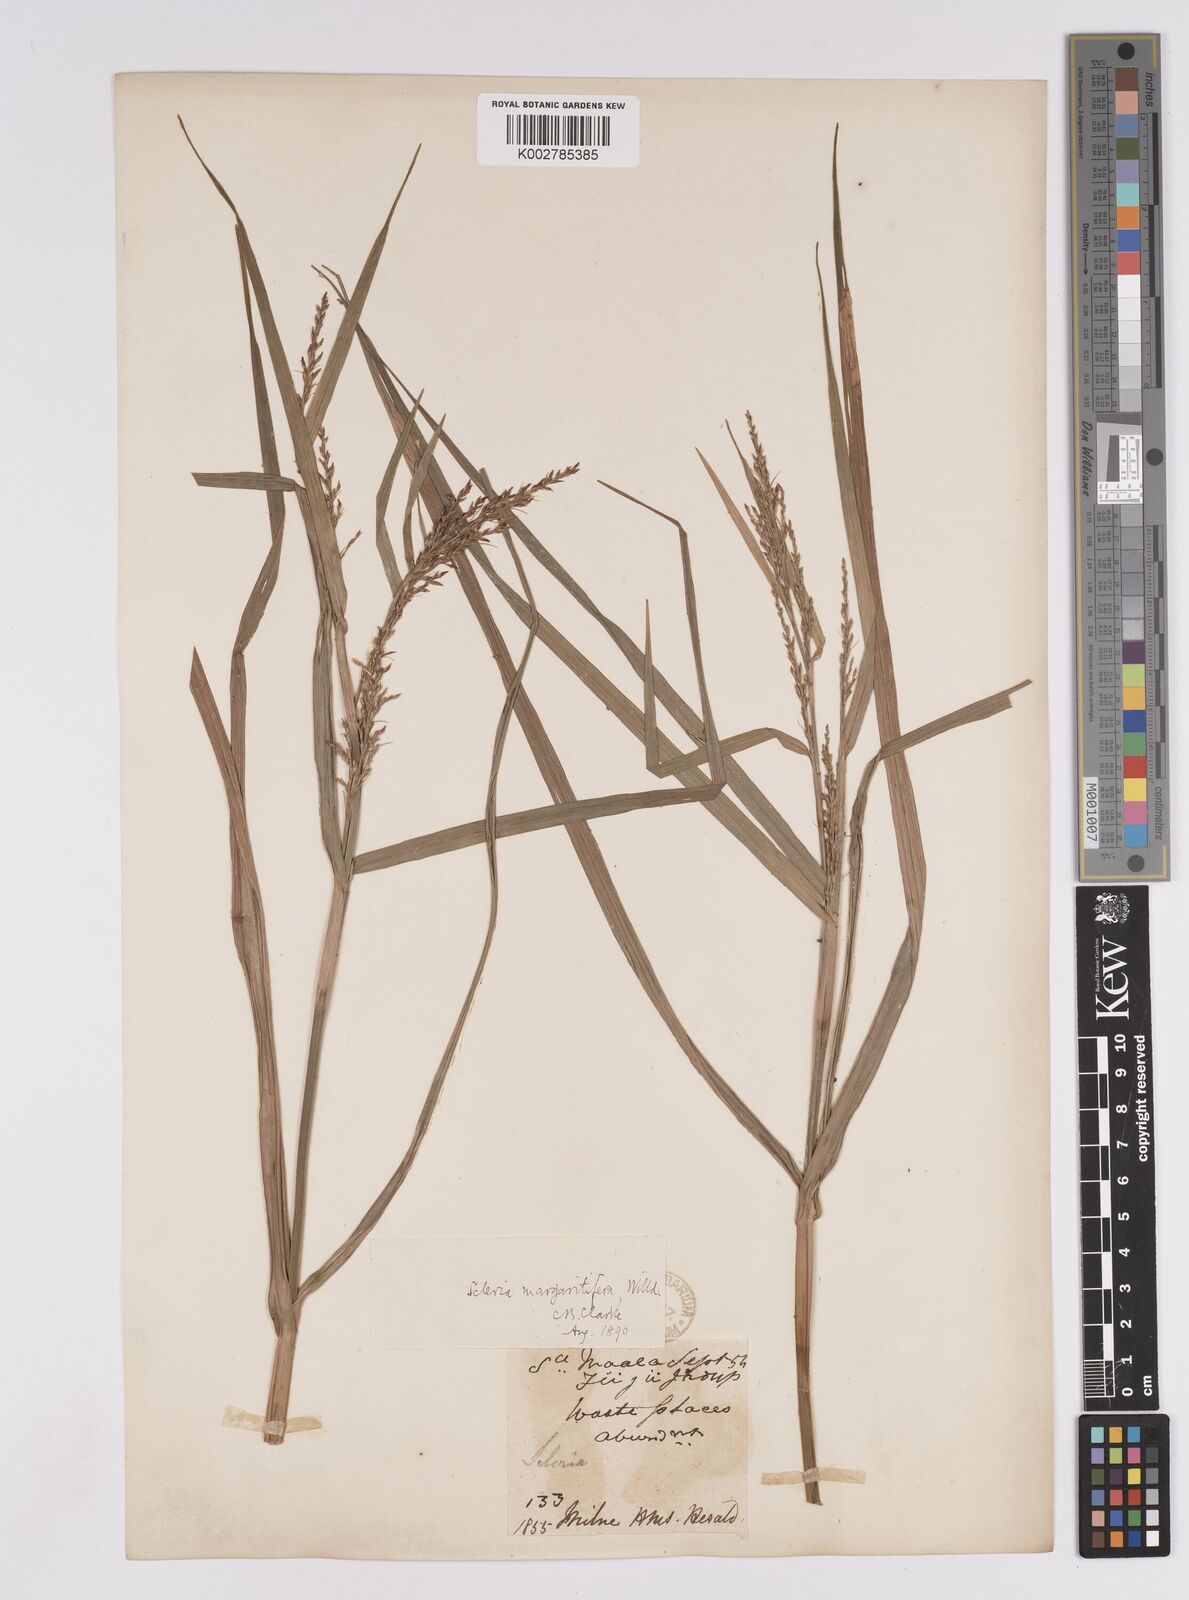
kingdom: Plantae
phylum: Tracheophyta
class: Liliopsida
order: Poales
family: Cyperaceae
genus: Scleria
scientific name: Scleria polycarpa
